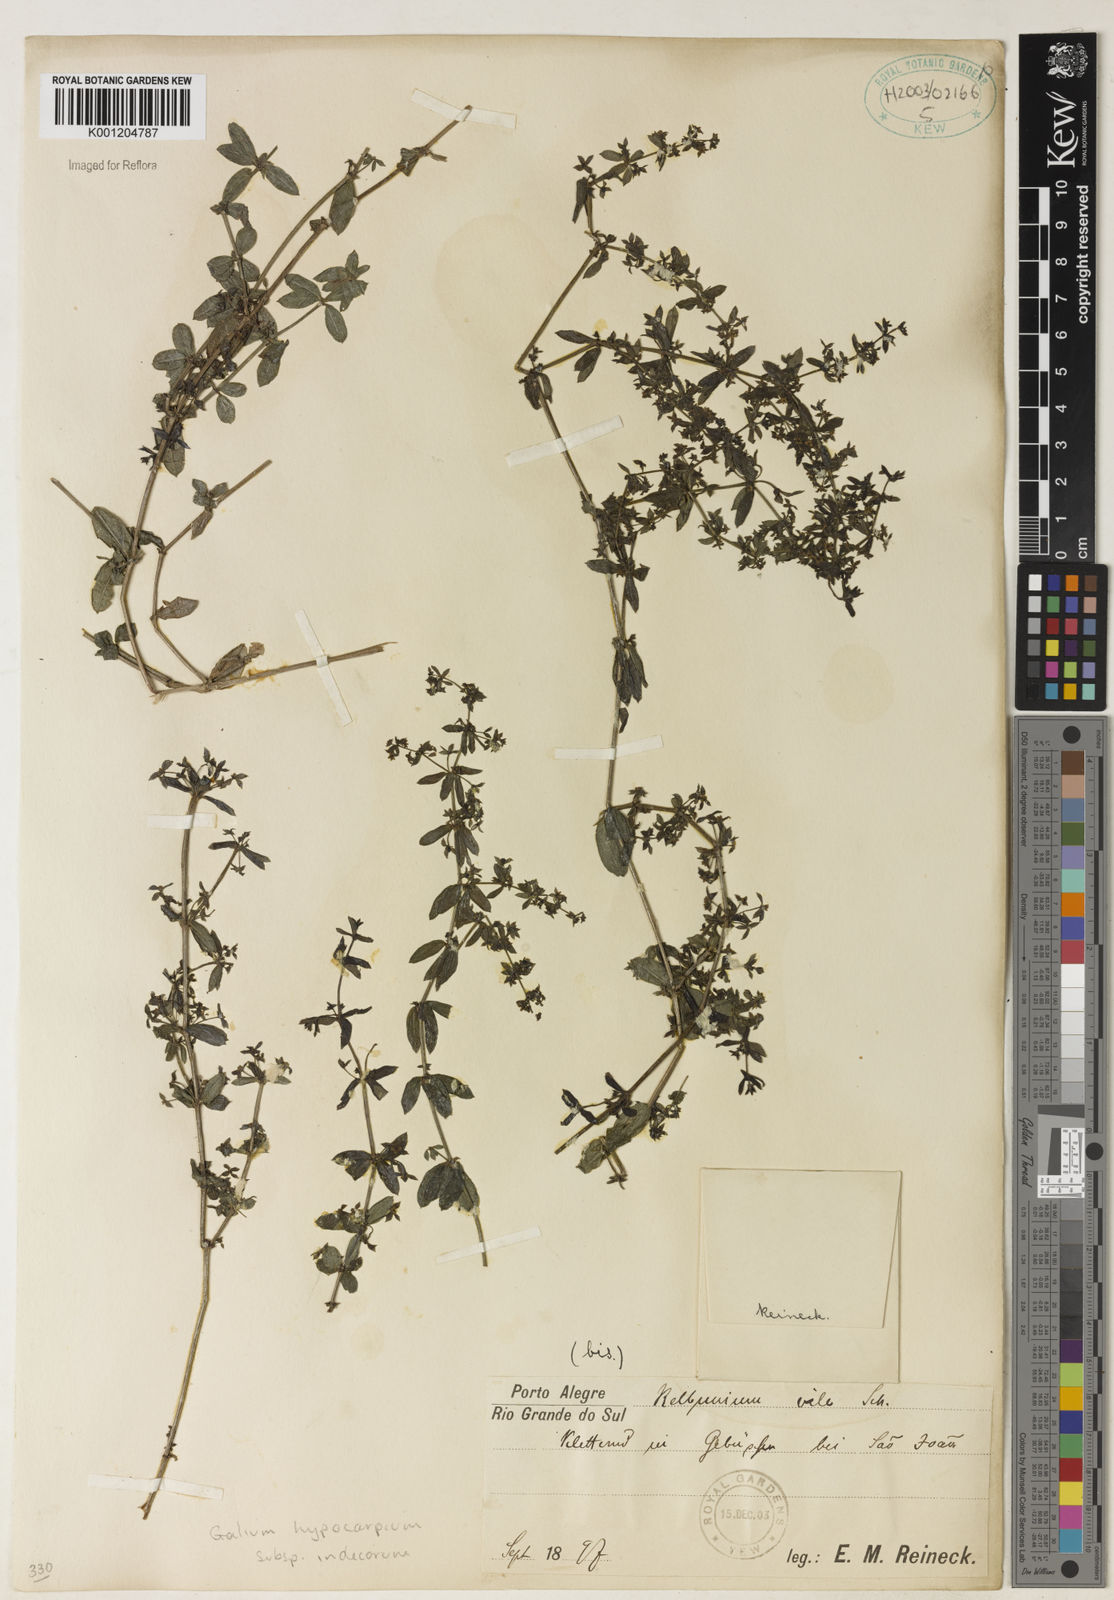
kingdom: Plantae
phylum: Tracheophyta
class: Magnoliopsida
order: Gentianales
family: Rubiaceae
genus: Galium
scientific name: Galium hypocarpium
